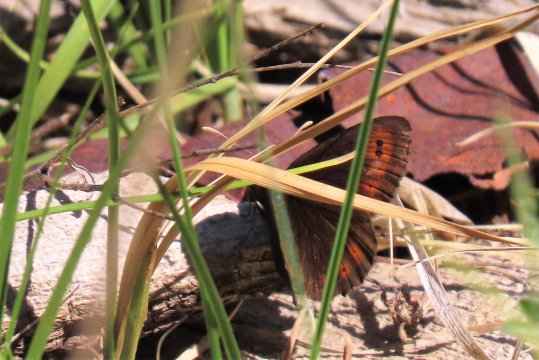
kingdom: Animalia
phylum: Arthropoda
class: Insecta
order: Lepidoptera
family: Nymphalidae
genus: Erebia
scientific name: Erebia epipsodea
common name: Common Alpine
